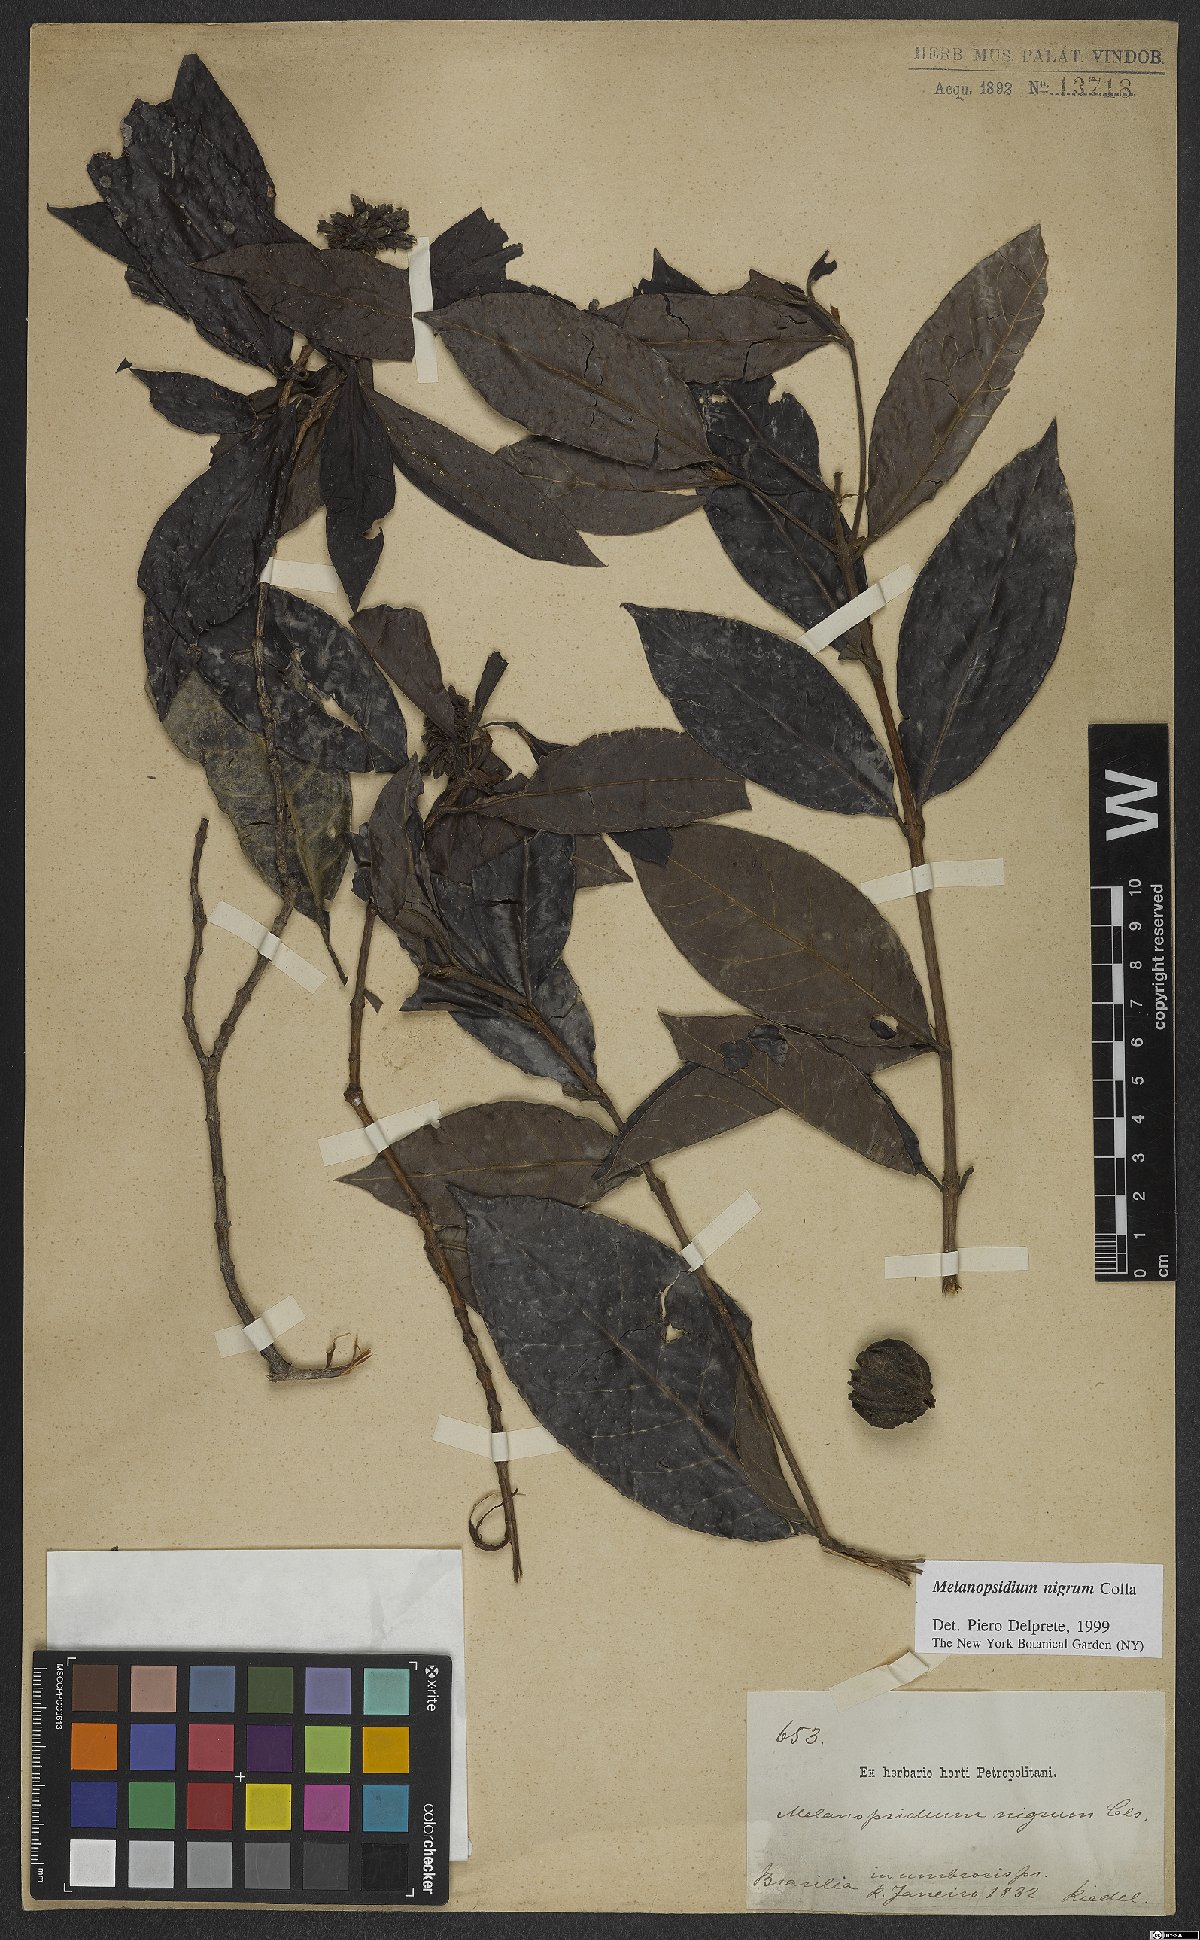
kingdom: Plantae
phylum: Tracheophyta
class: Magnoliopsida
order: Gentianales
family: Rubiaceae
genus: Melanopsidium
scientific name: Melanopsidium nigrum
